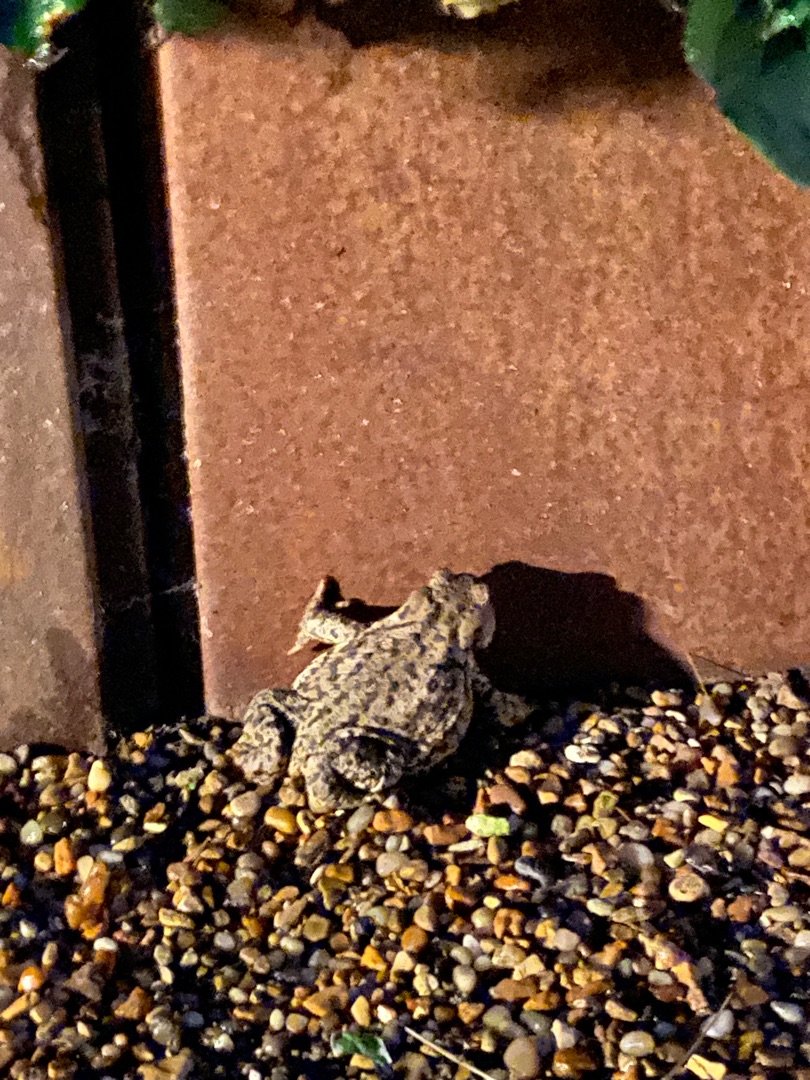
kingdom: Animalia
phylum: Chordata
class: Amphibia
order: Anura
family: Bufonidae
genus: Bufo
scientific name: Bufo bufo
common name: Skrubtudse
